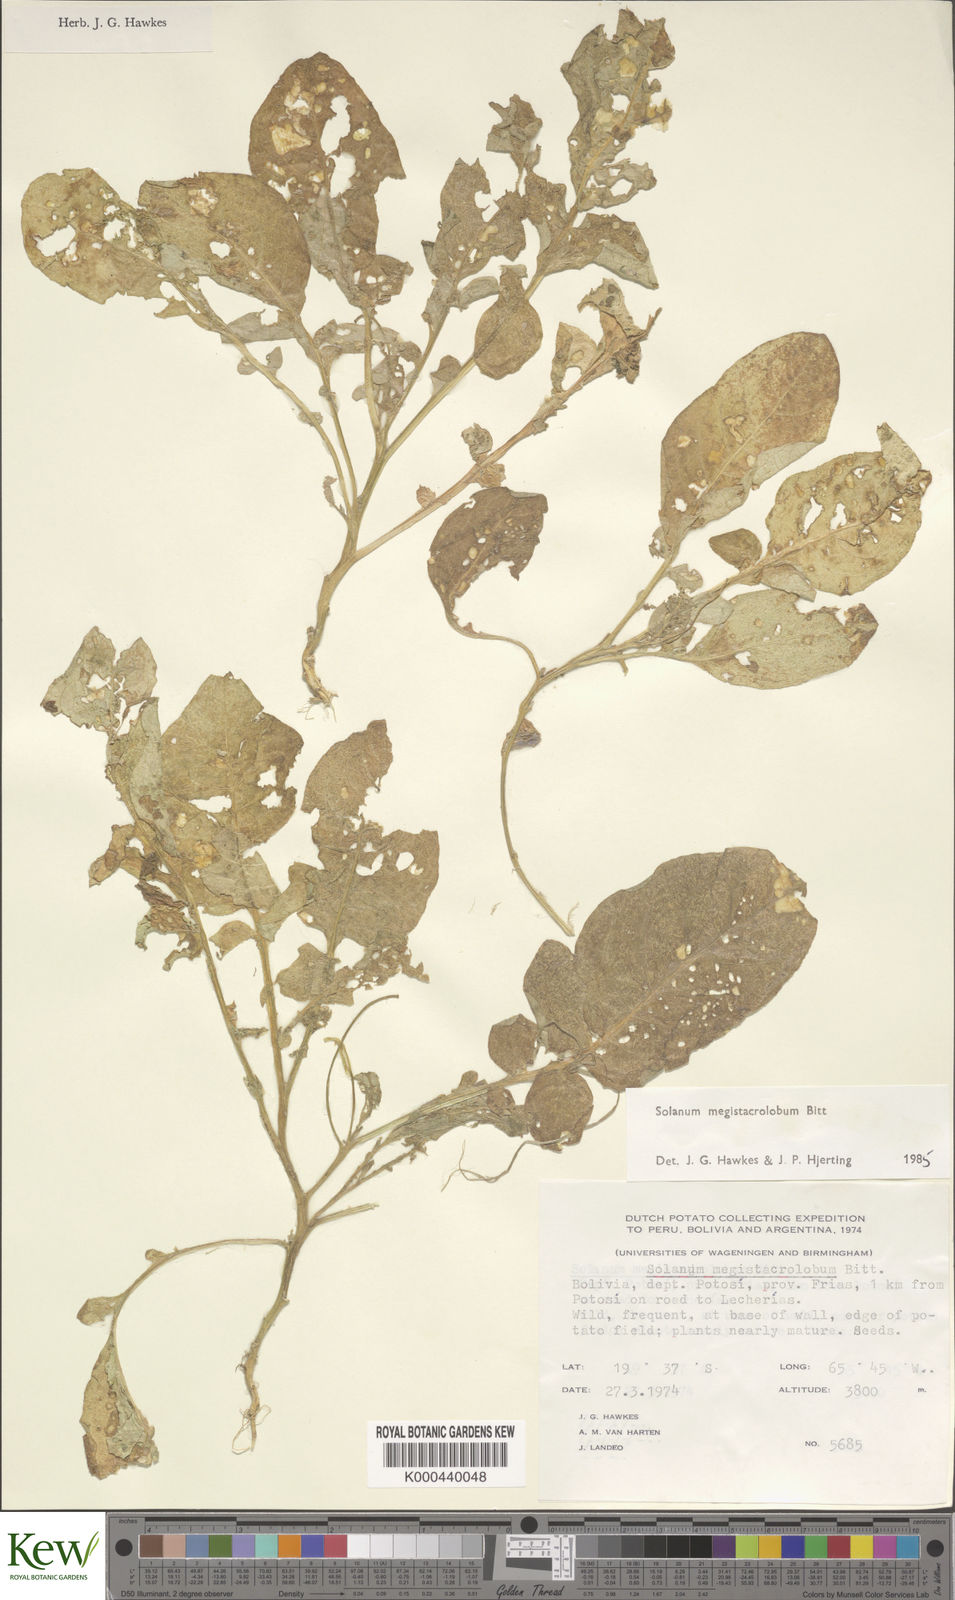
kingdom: Plantae
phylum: Tracheophyta
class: Magnoliopsida
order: Solanales
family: Solanaceae
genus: Solanum
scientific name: Solanum boliviense
